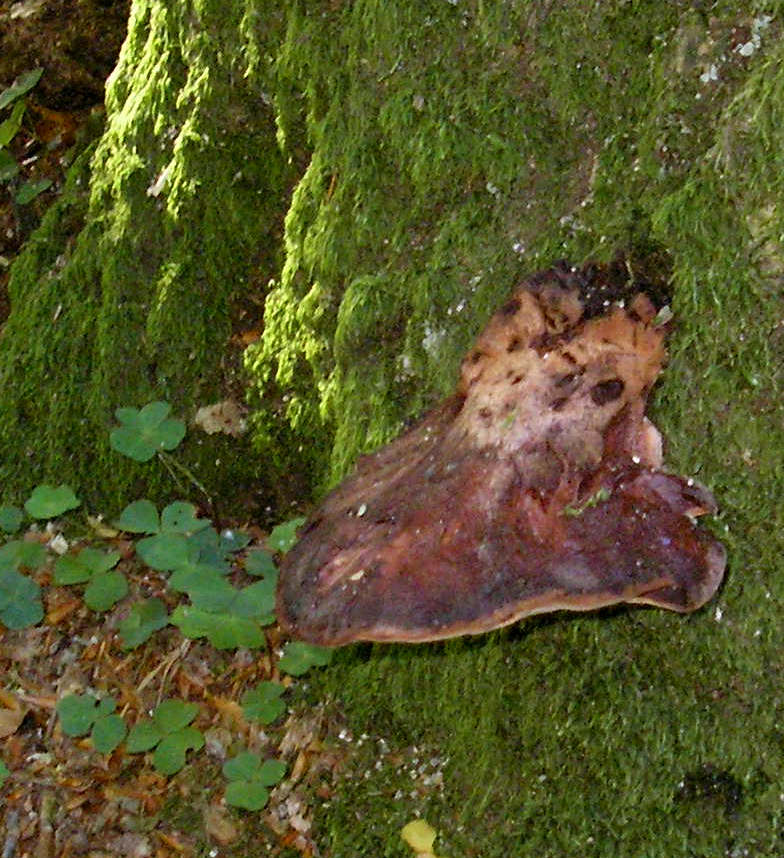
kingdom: Fungi
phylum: Basidiomycota
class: Agaricomycetes
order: Agaricales
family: Fistulinaceae
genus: Fistulina
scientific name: Fistulina hepatica
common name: oksetunge
